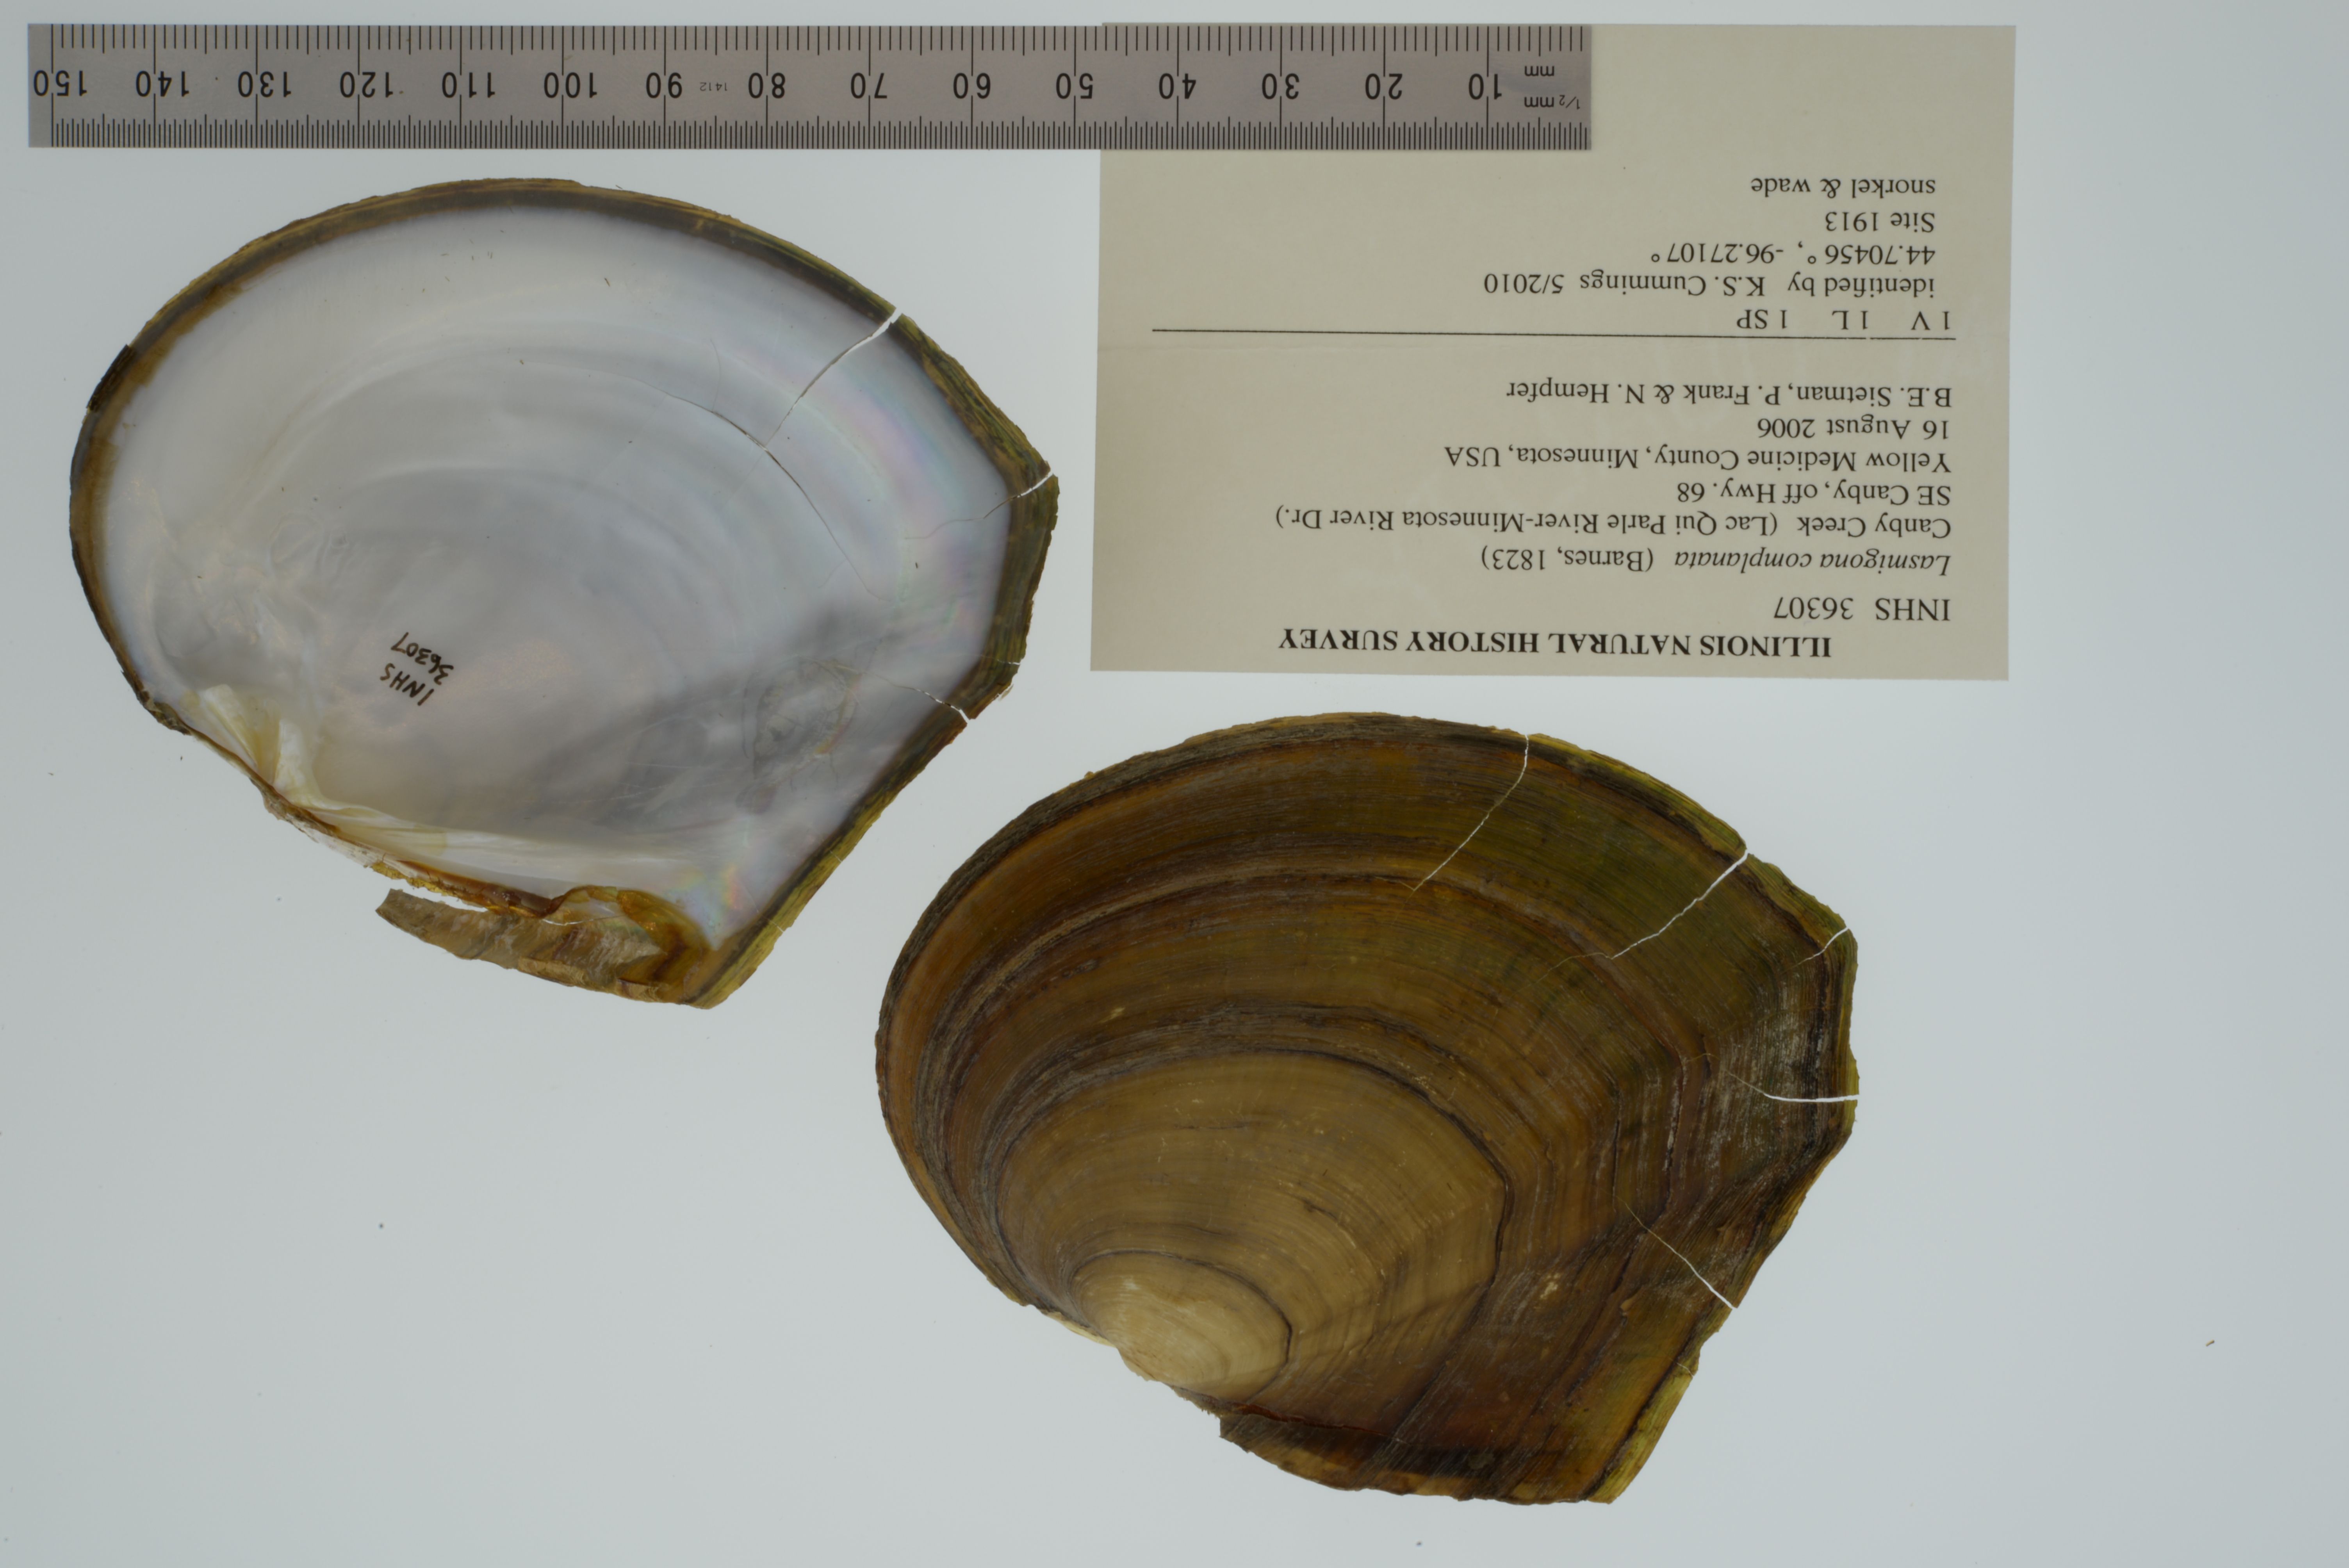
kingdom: Animalia
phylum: Mollusca
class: Bivalvia
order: Unionida
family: Unionidae
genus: Lasmigona
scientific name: Lasmigona complanata
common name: White heelsplitter
